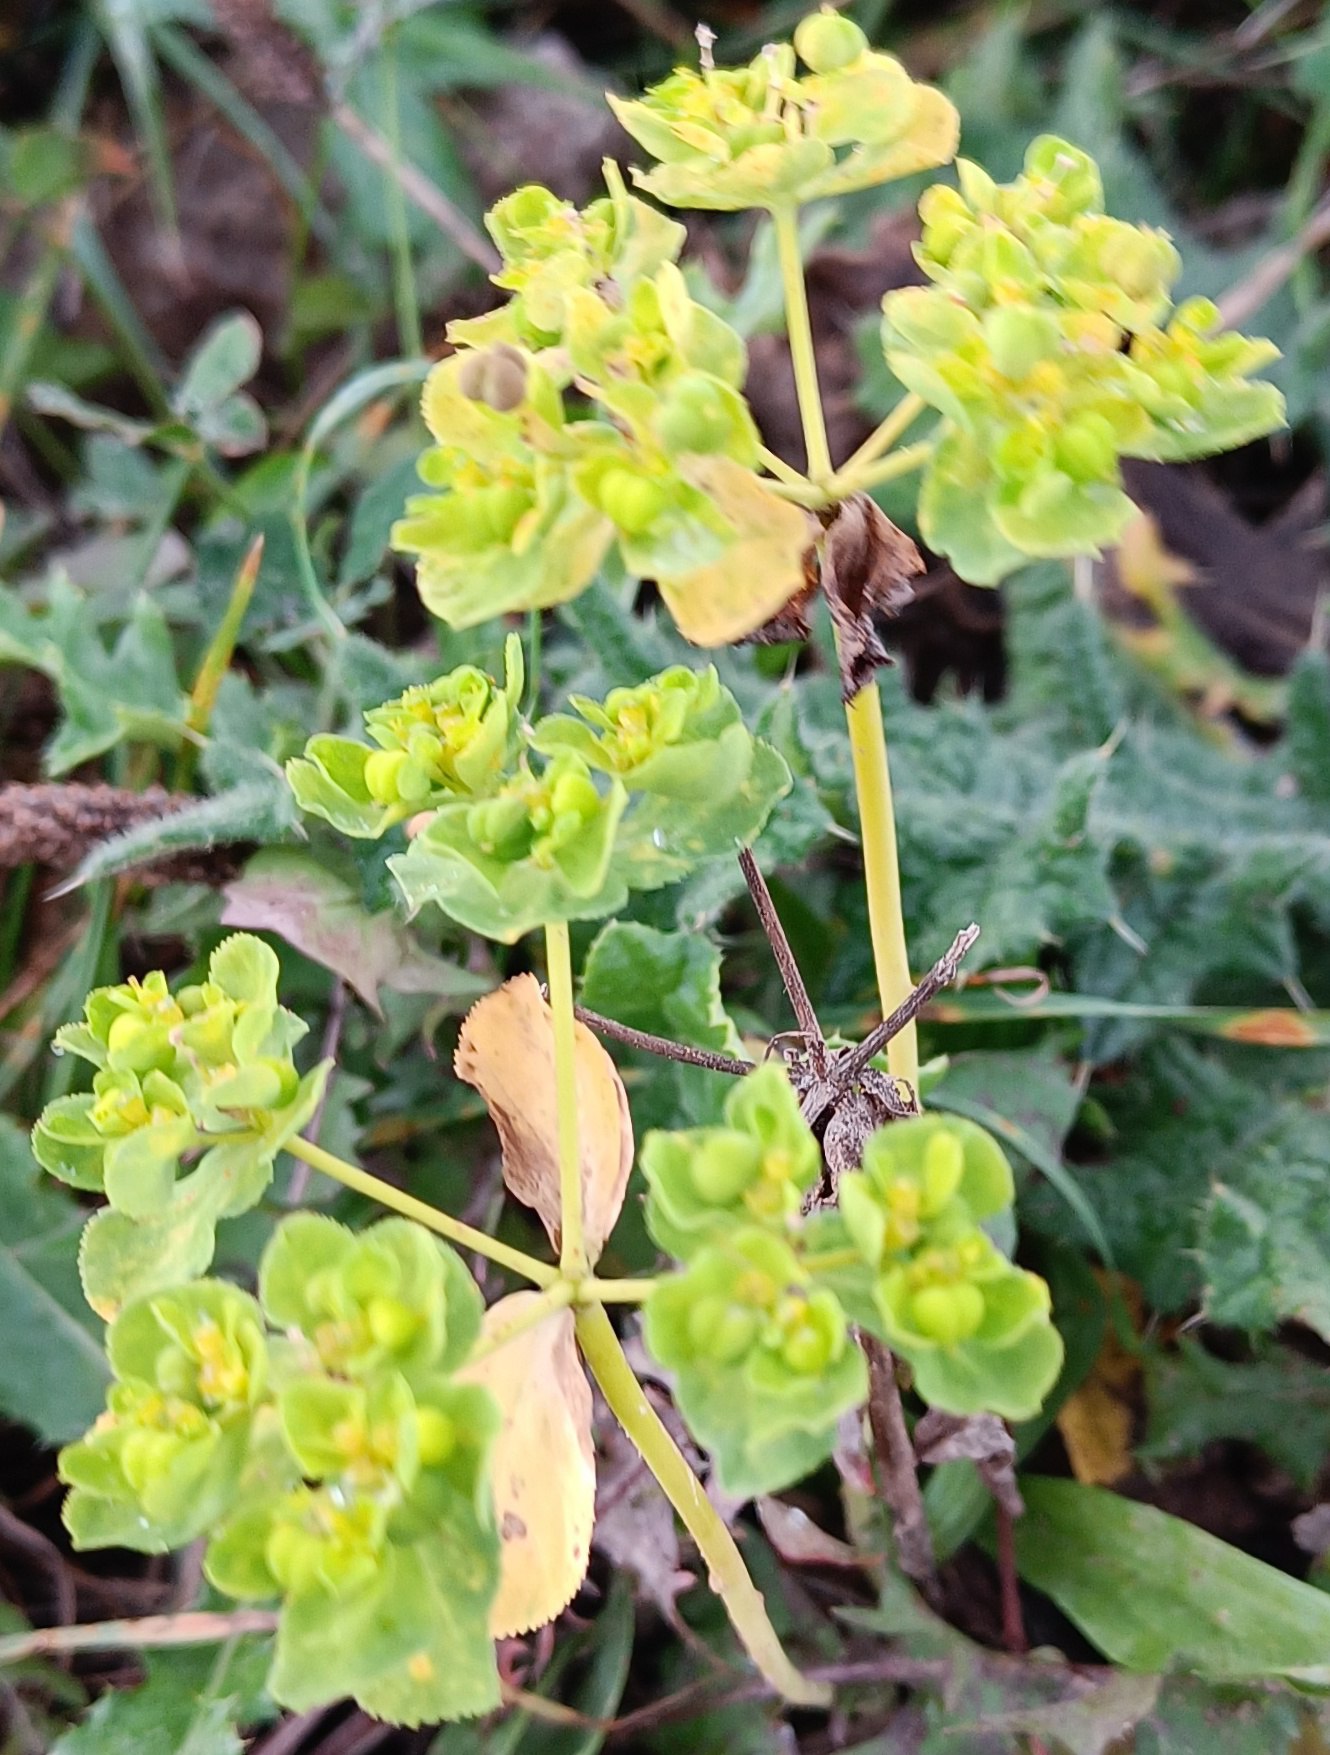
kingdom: Plantae
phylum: Tracheophyta
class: Magnoliopsida
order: Malpighiales
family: Euphorbiaceae
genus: Euphorbia
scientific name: Euphorbia helioscopia
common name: Skærm-vortemælk
